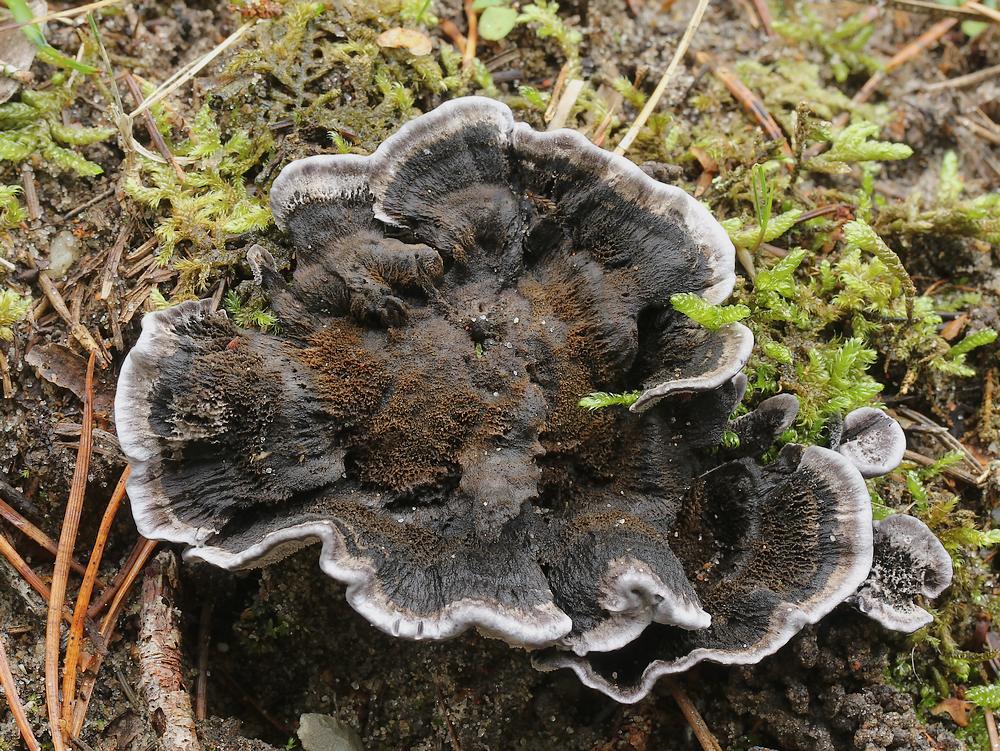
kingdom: Fungi
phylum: Basidiomycota
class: Agaricomycetes
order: Thelephorales
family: Thelephoraceae
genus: Phellodon
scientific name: Phellodon
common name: mørk duftpigsvamp
